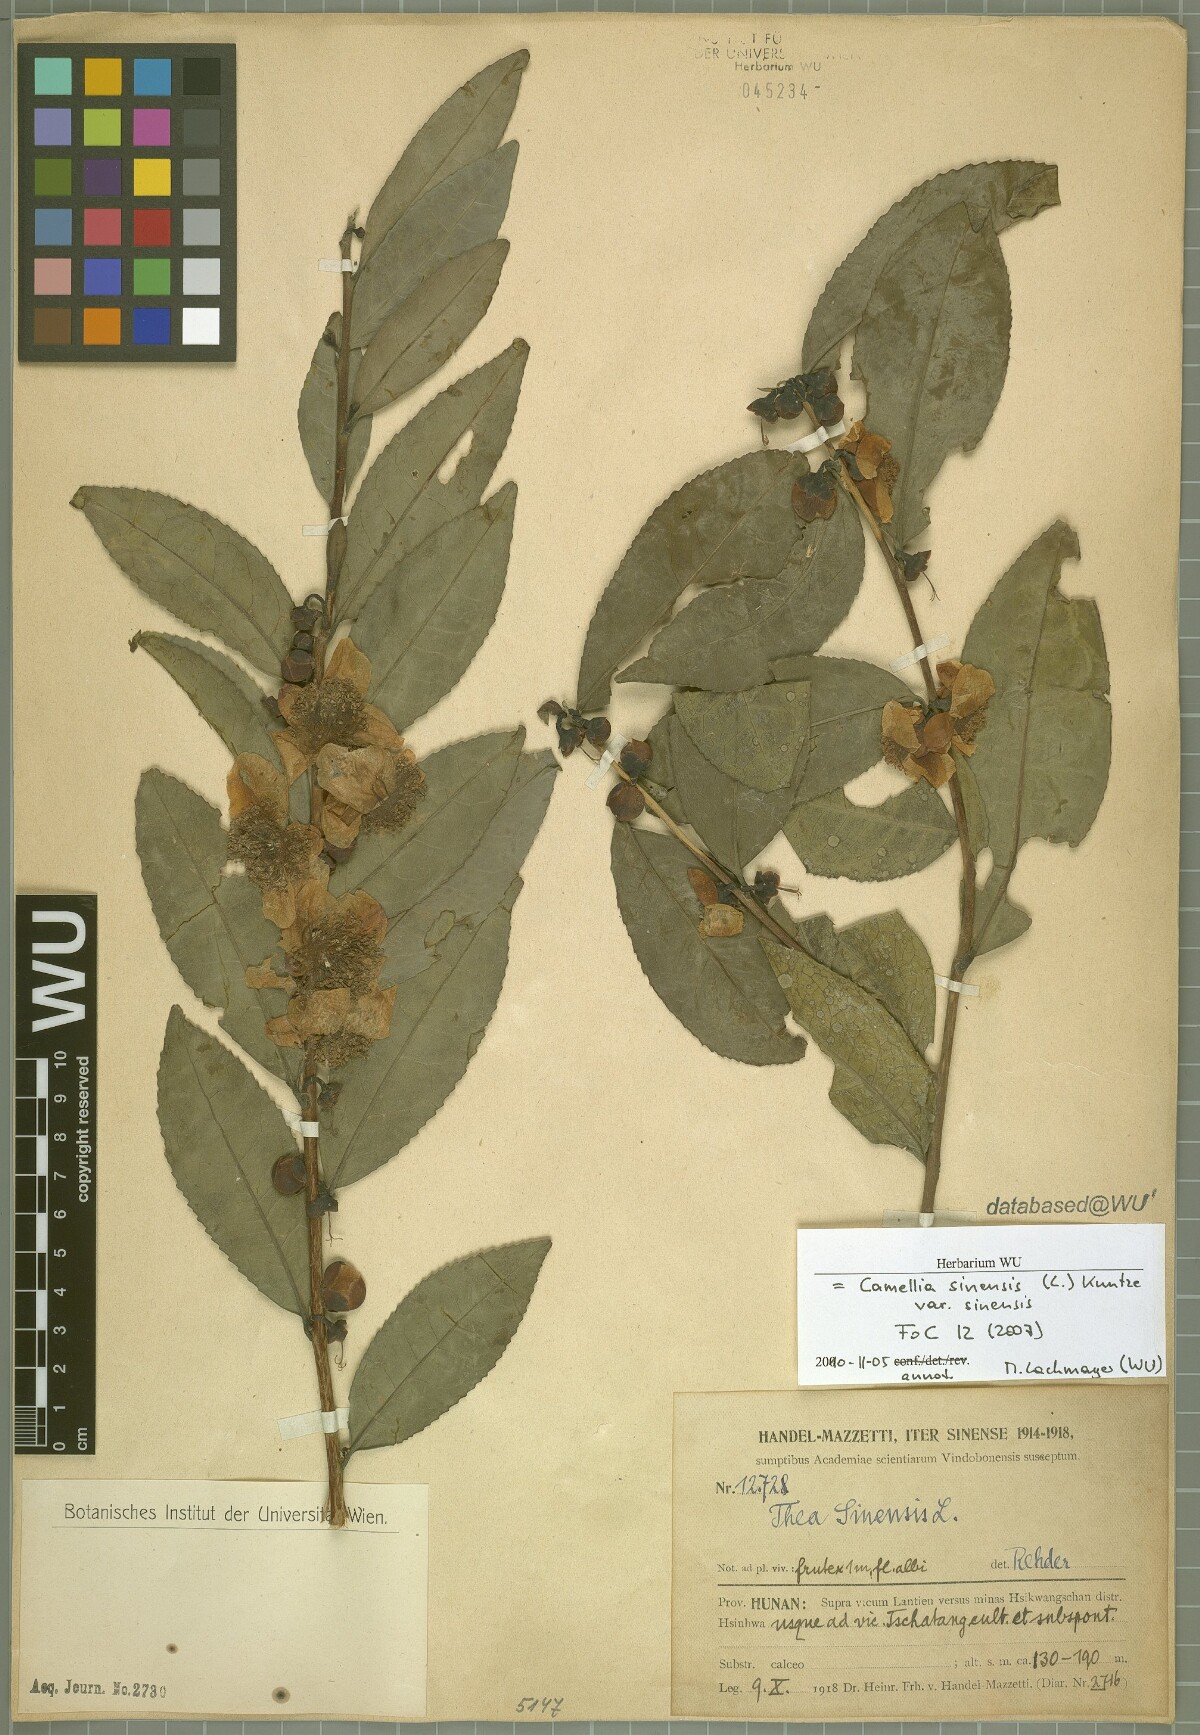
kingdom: Plantae
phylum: Tracheophyta
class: Magnoliopsida
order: Ericales
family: Theaceae
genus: Camellia
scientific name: Camellia sinensis
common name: Tea
